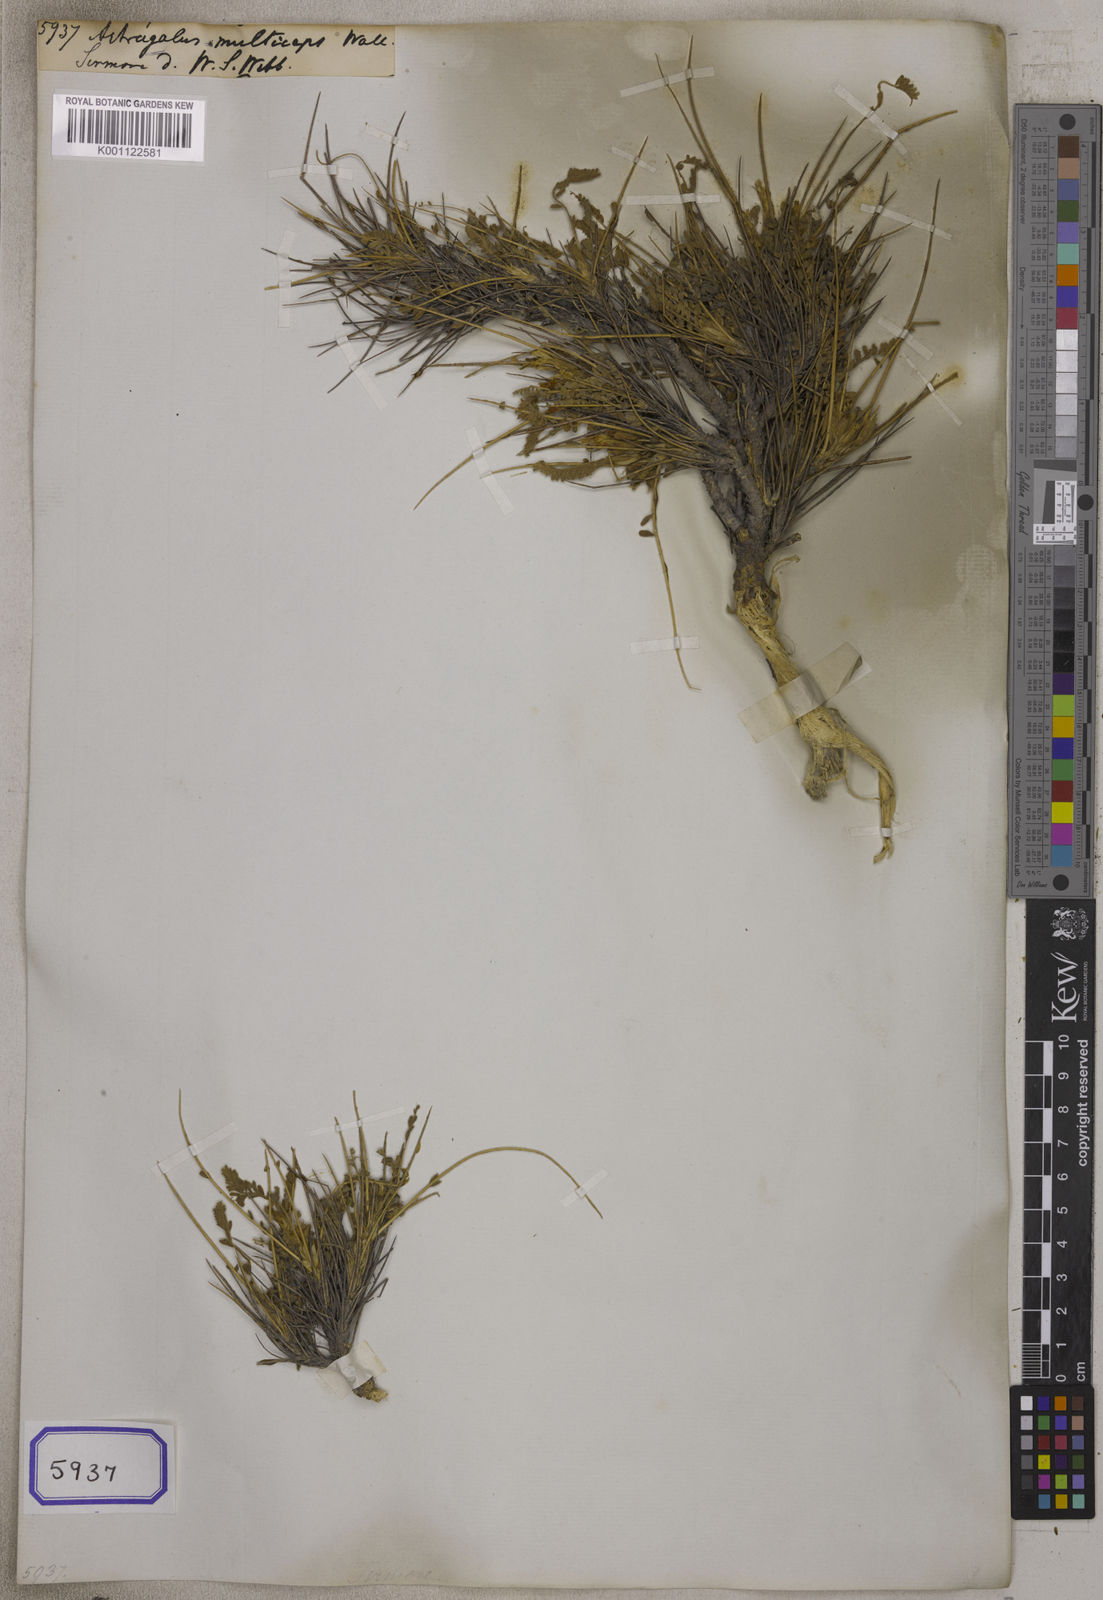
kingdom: Plantae
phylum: Tracheophyta
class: Magnoliopsida
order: Fabales
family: Fabaceae
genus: Astragalus
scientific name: Astragalus
